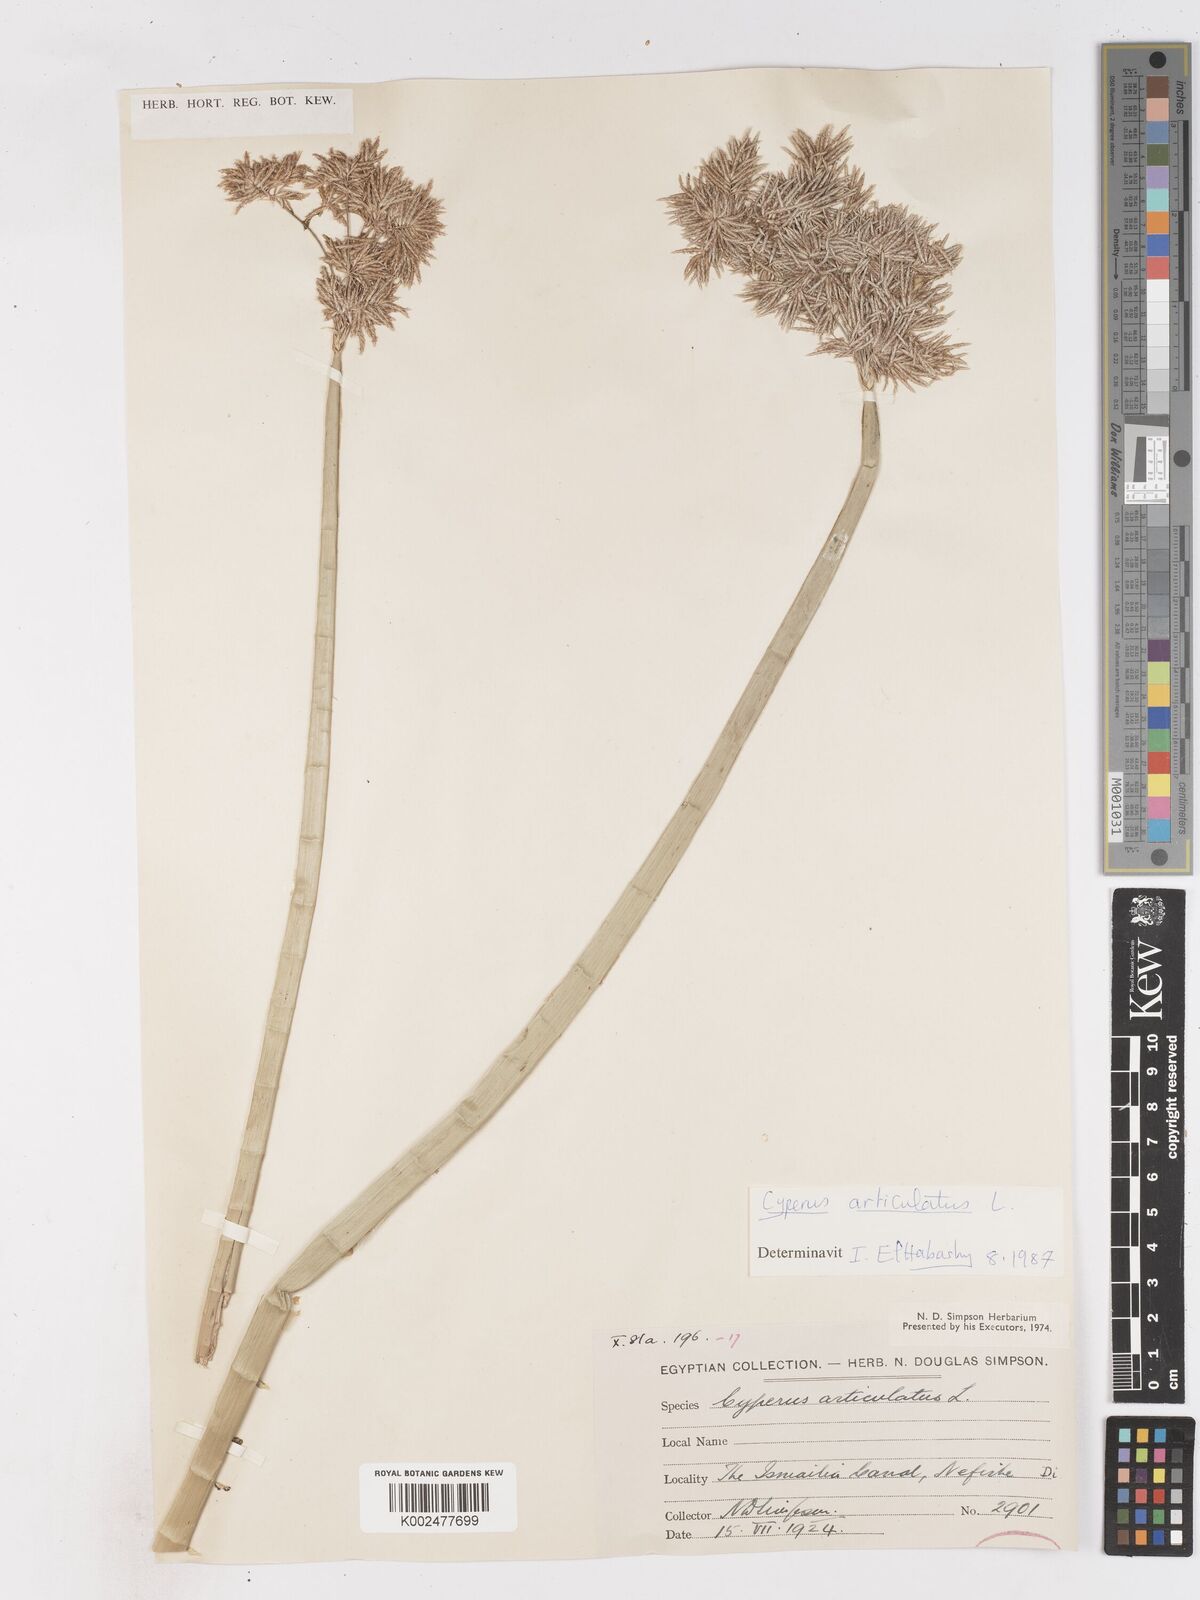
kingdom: Plantae
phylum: Tracheophyta
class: Liliopsida
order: Poales
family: Cyperaceae
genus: Cyperus
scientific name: Cyperus articulatus
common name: Jointed flatsedge
